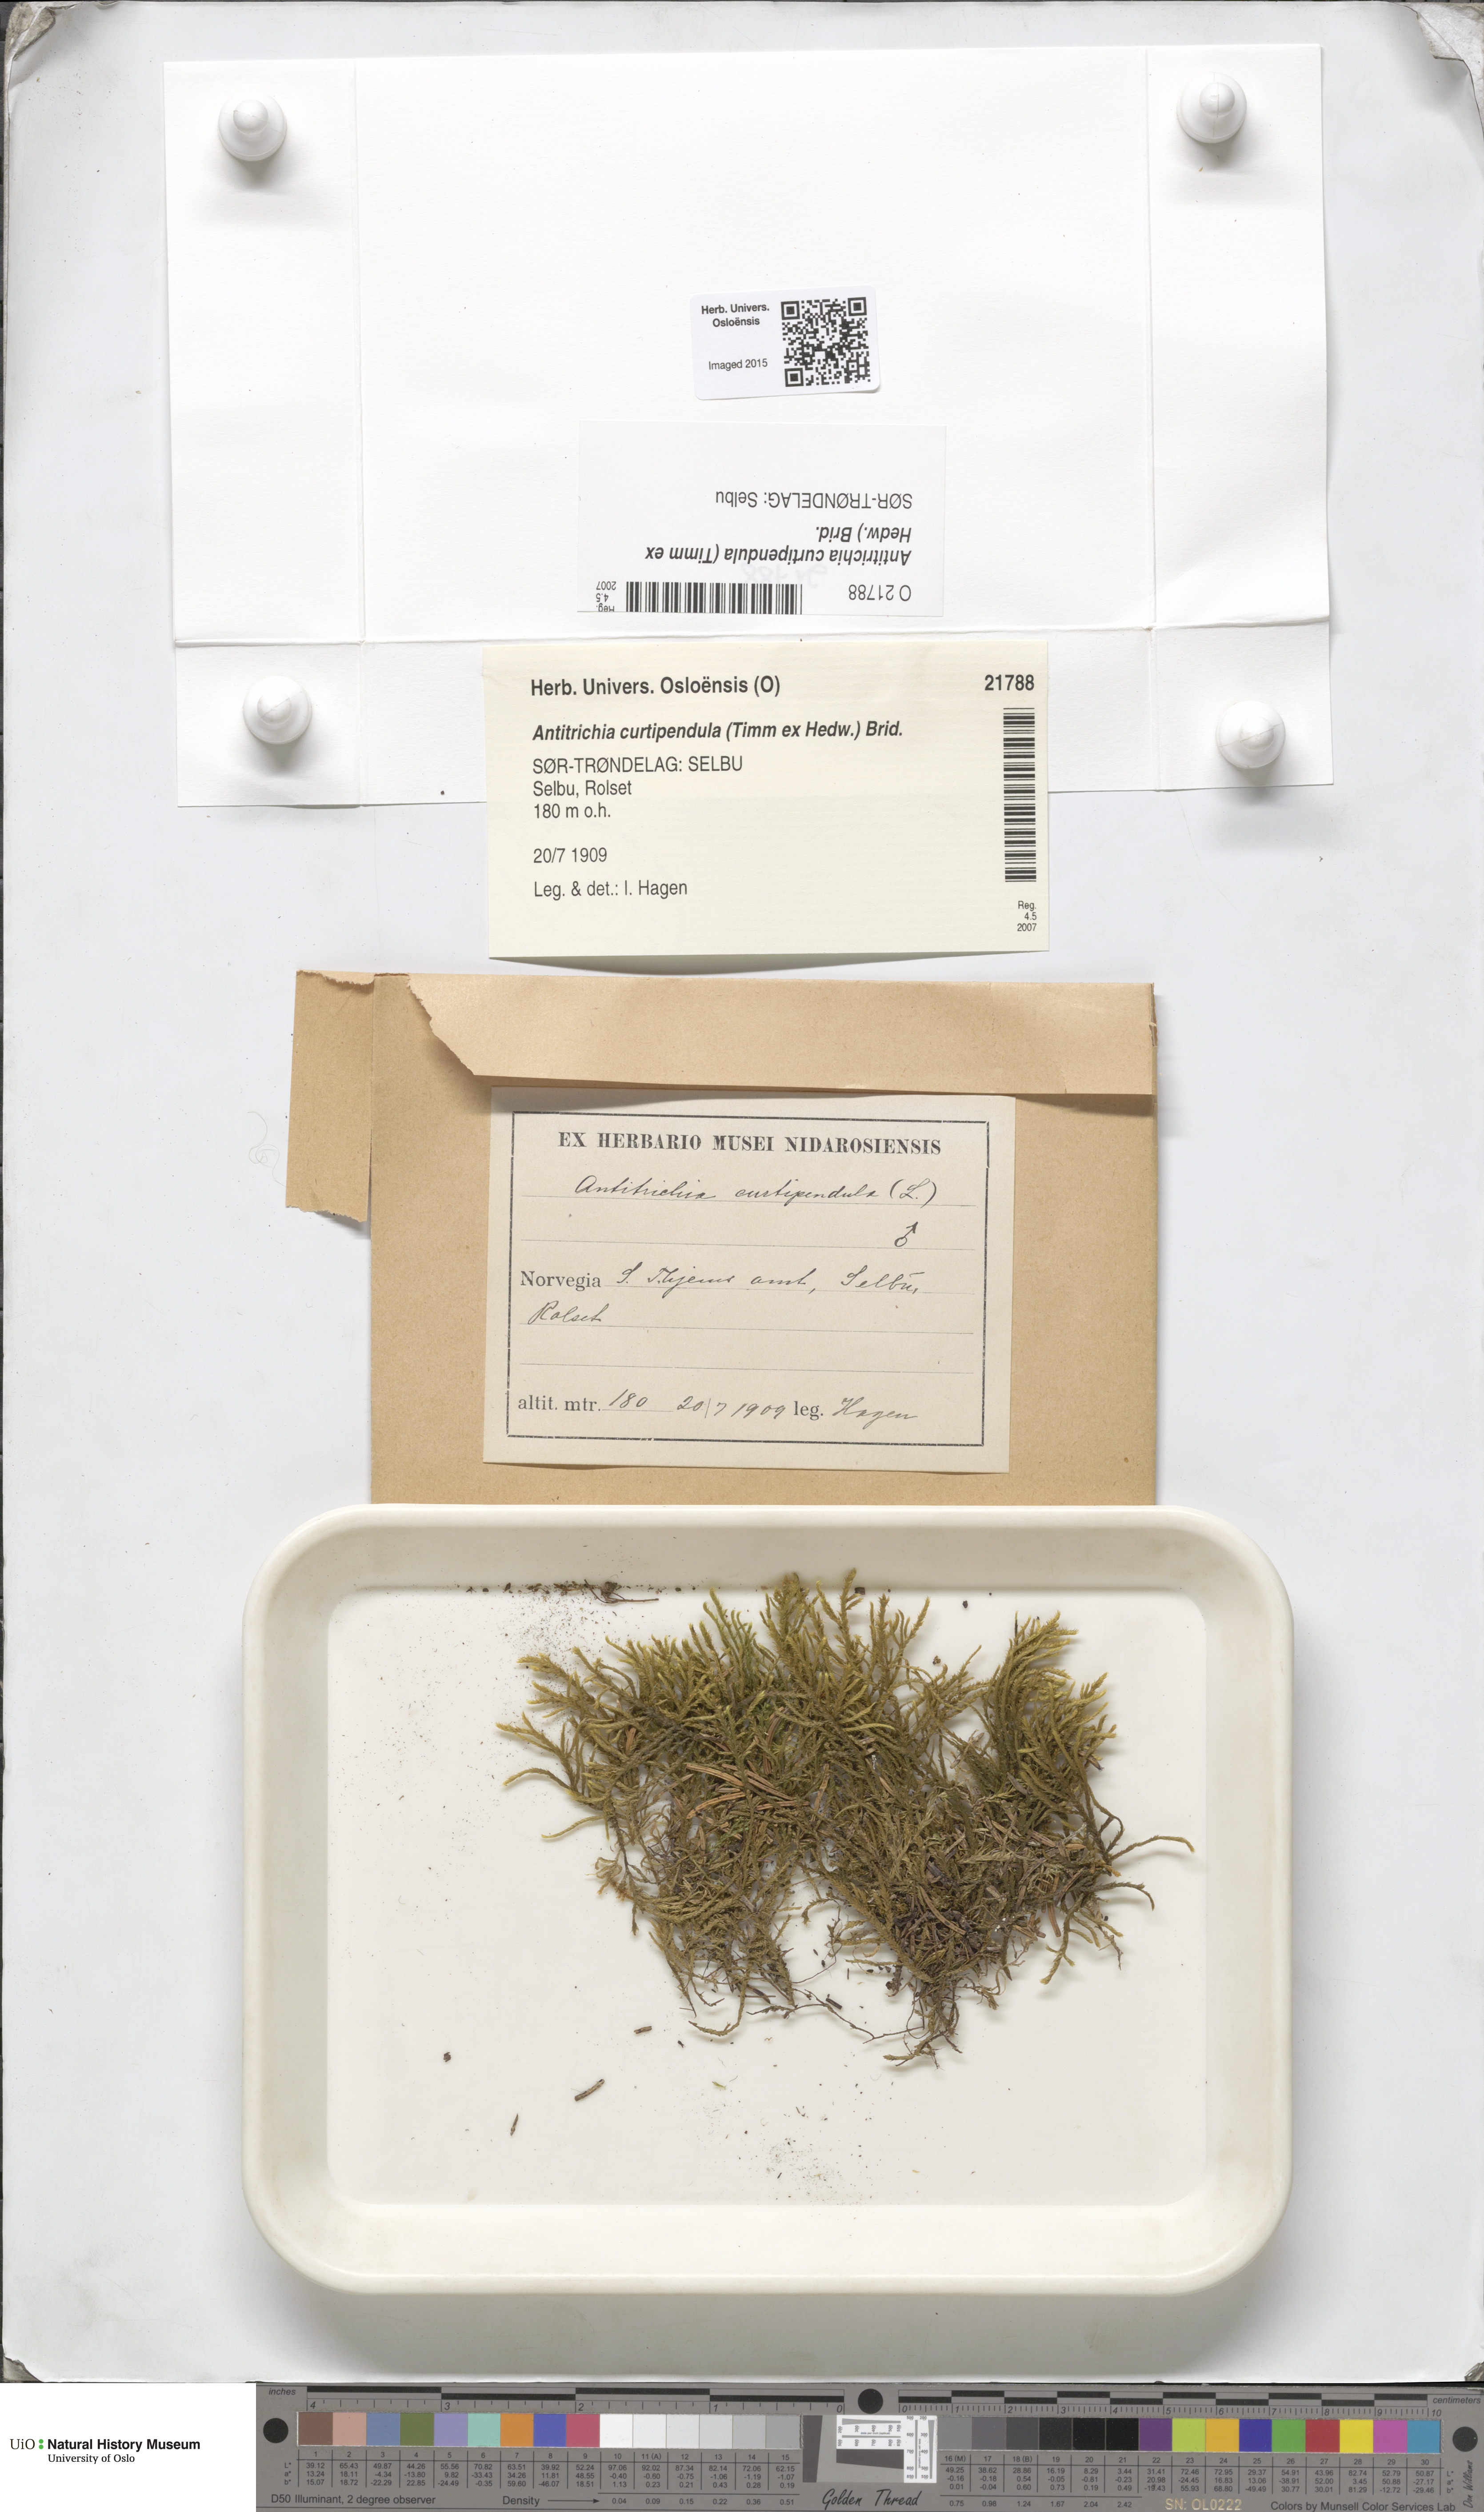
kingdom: Plantae
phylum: Bryophyta
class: Bryopsida
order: Hypnales
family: Antitrichiaceae
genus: Antitrichia
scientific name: Antitrichia curtipendula
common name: Pendulous wing-moss
